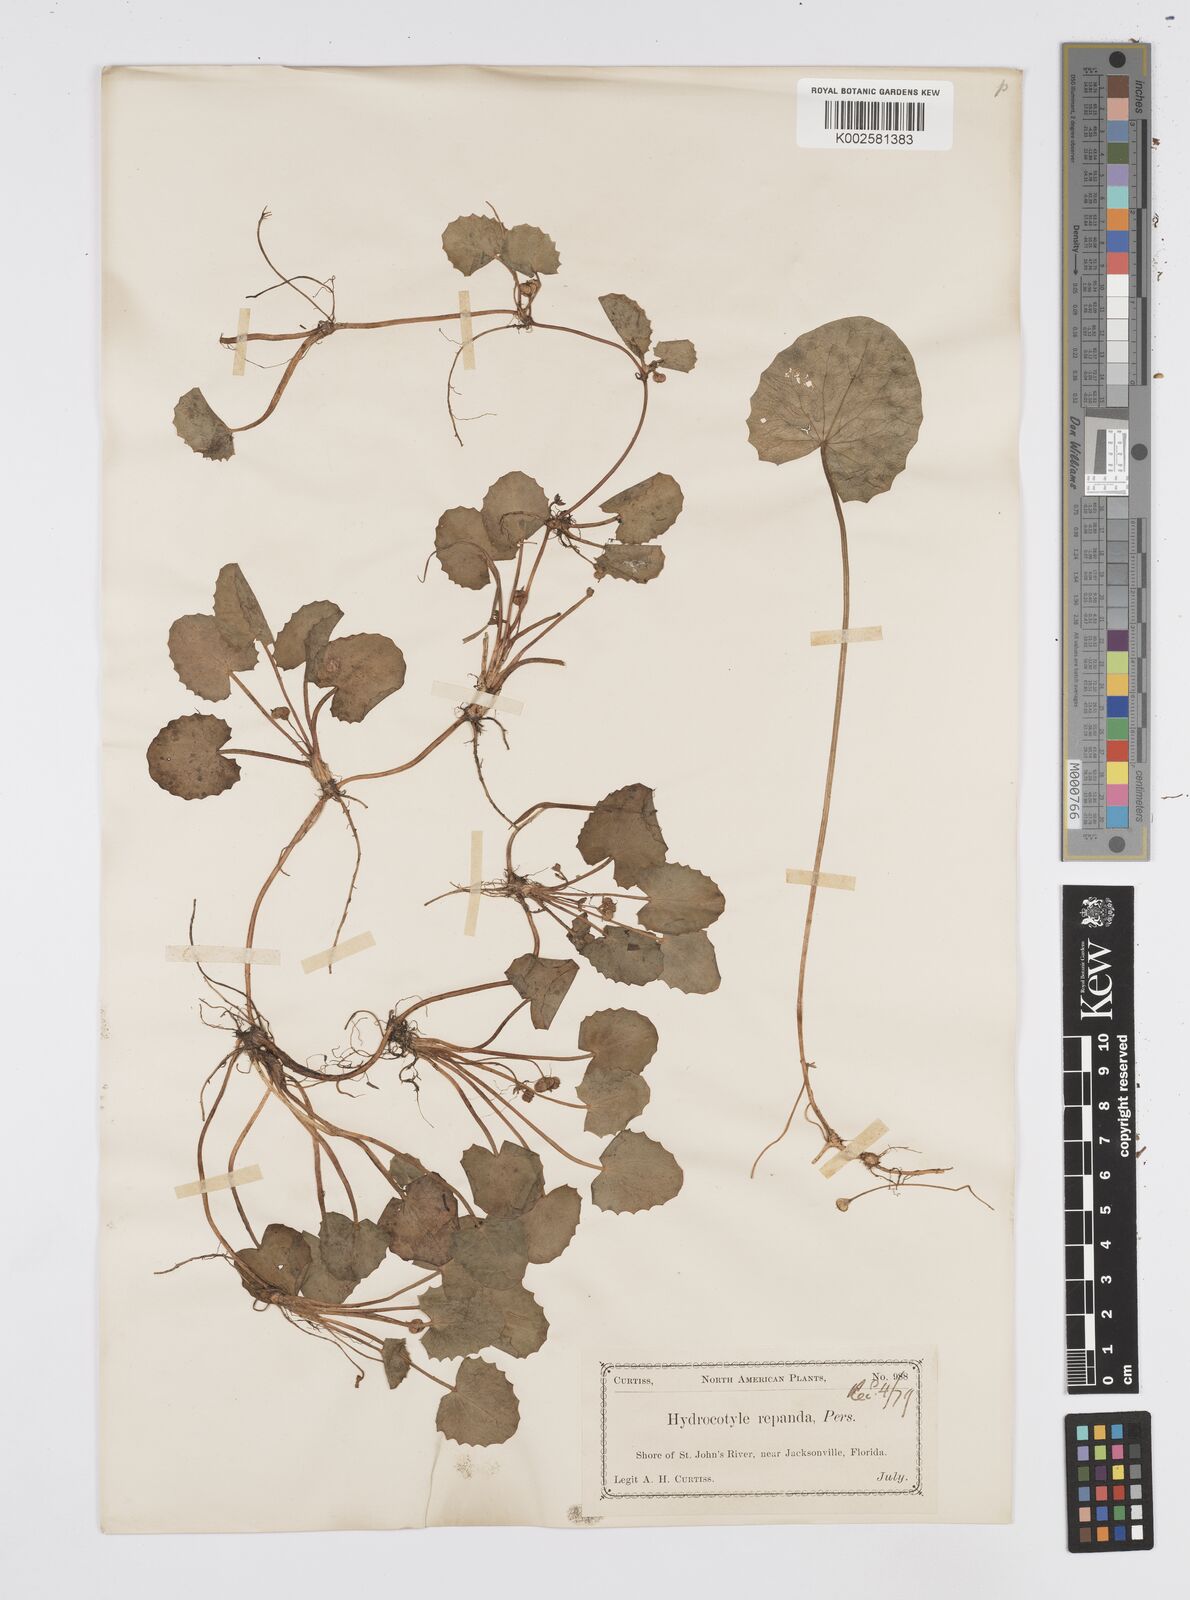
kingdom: Plantae
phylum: Tracheophyta
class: Magnoliopsida
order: Apiales
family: Apiaceae
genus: Centella
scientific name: Centella erecta
